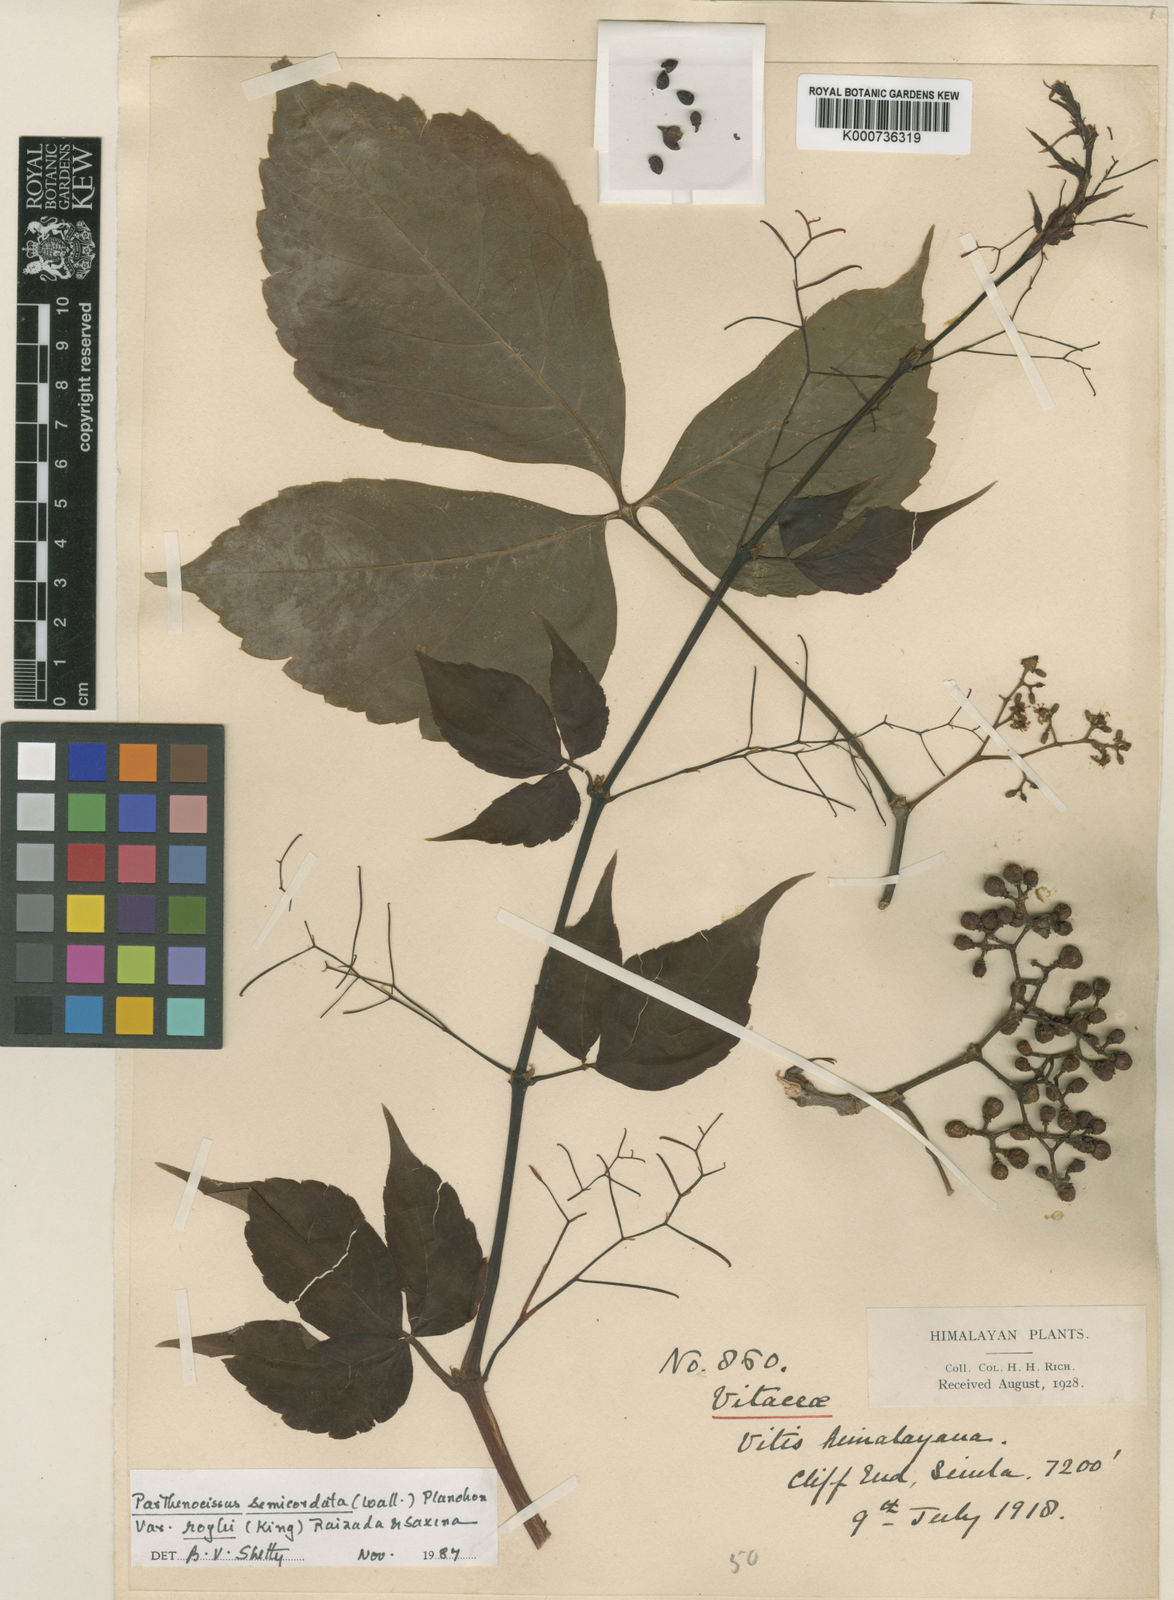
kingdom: Plantae
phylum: Tracheophyta
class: Magnoliopsida
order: Vitales
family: Vitaceae
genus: Parthenocissus
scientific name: Parthenocissus semicordata
